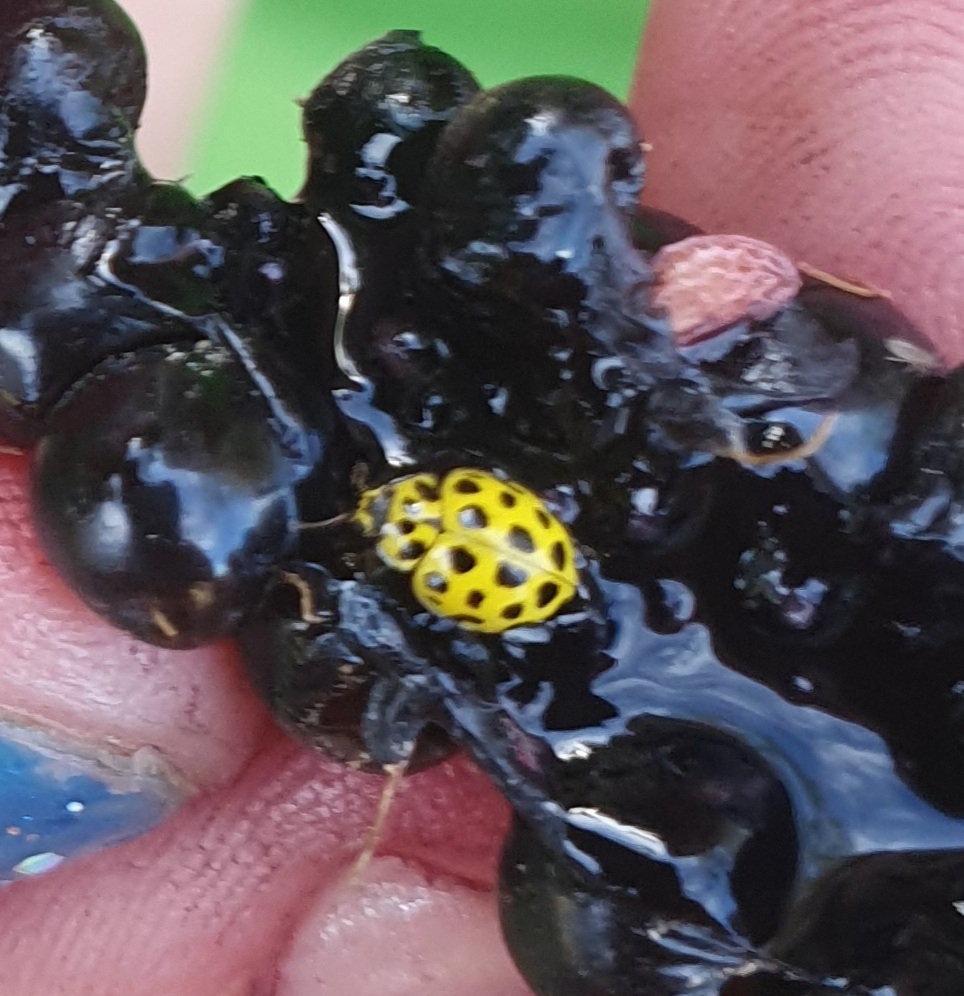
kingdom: Animalia
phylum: Arthropoda
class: Insecta
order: Coleoptera
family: Coccinellidae
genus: Psyllobora
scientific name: Psyllobora vigintiduopunctata
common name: Toogtyveplettet mariehøne
